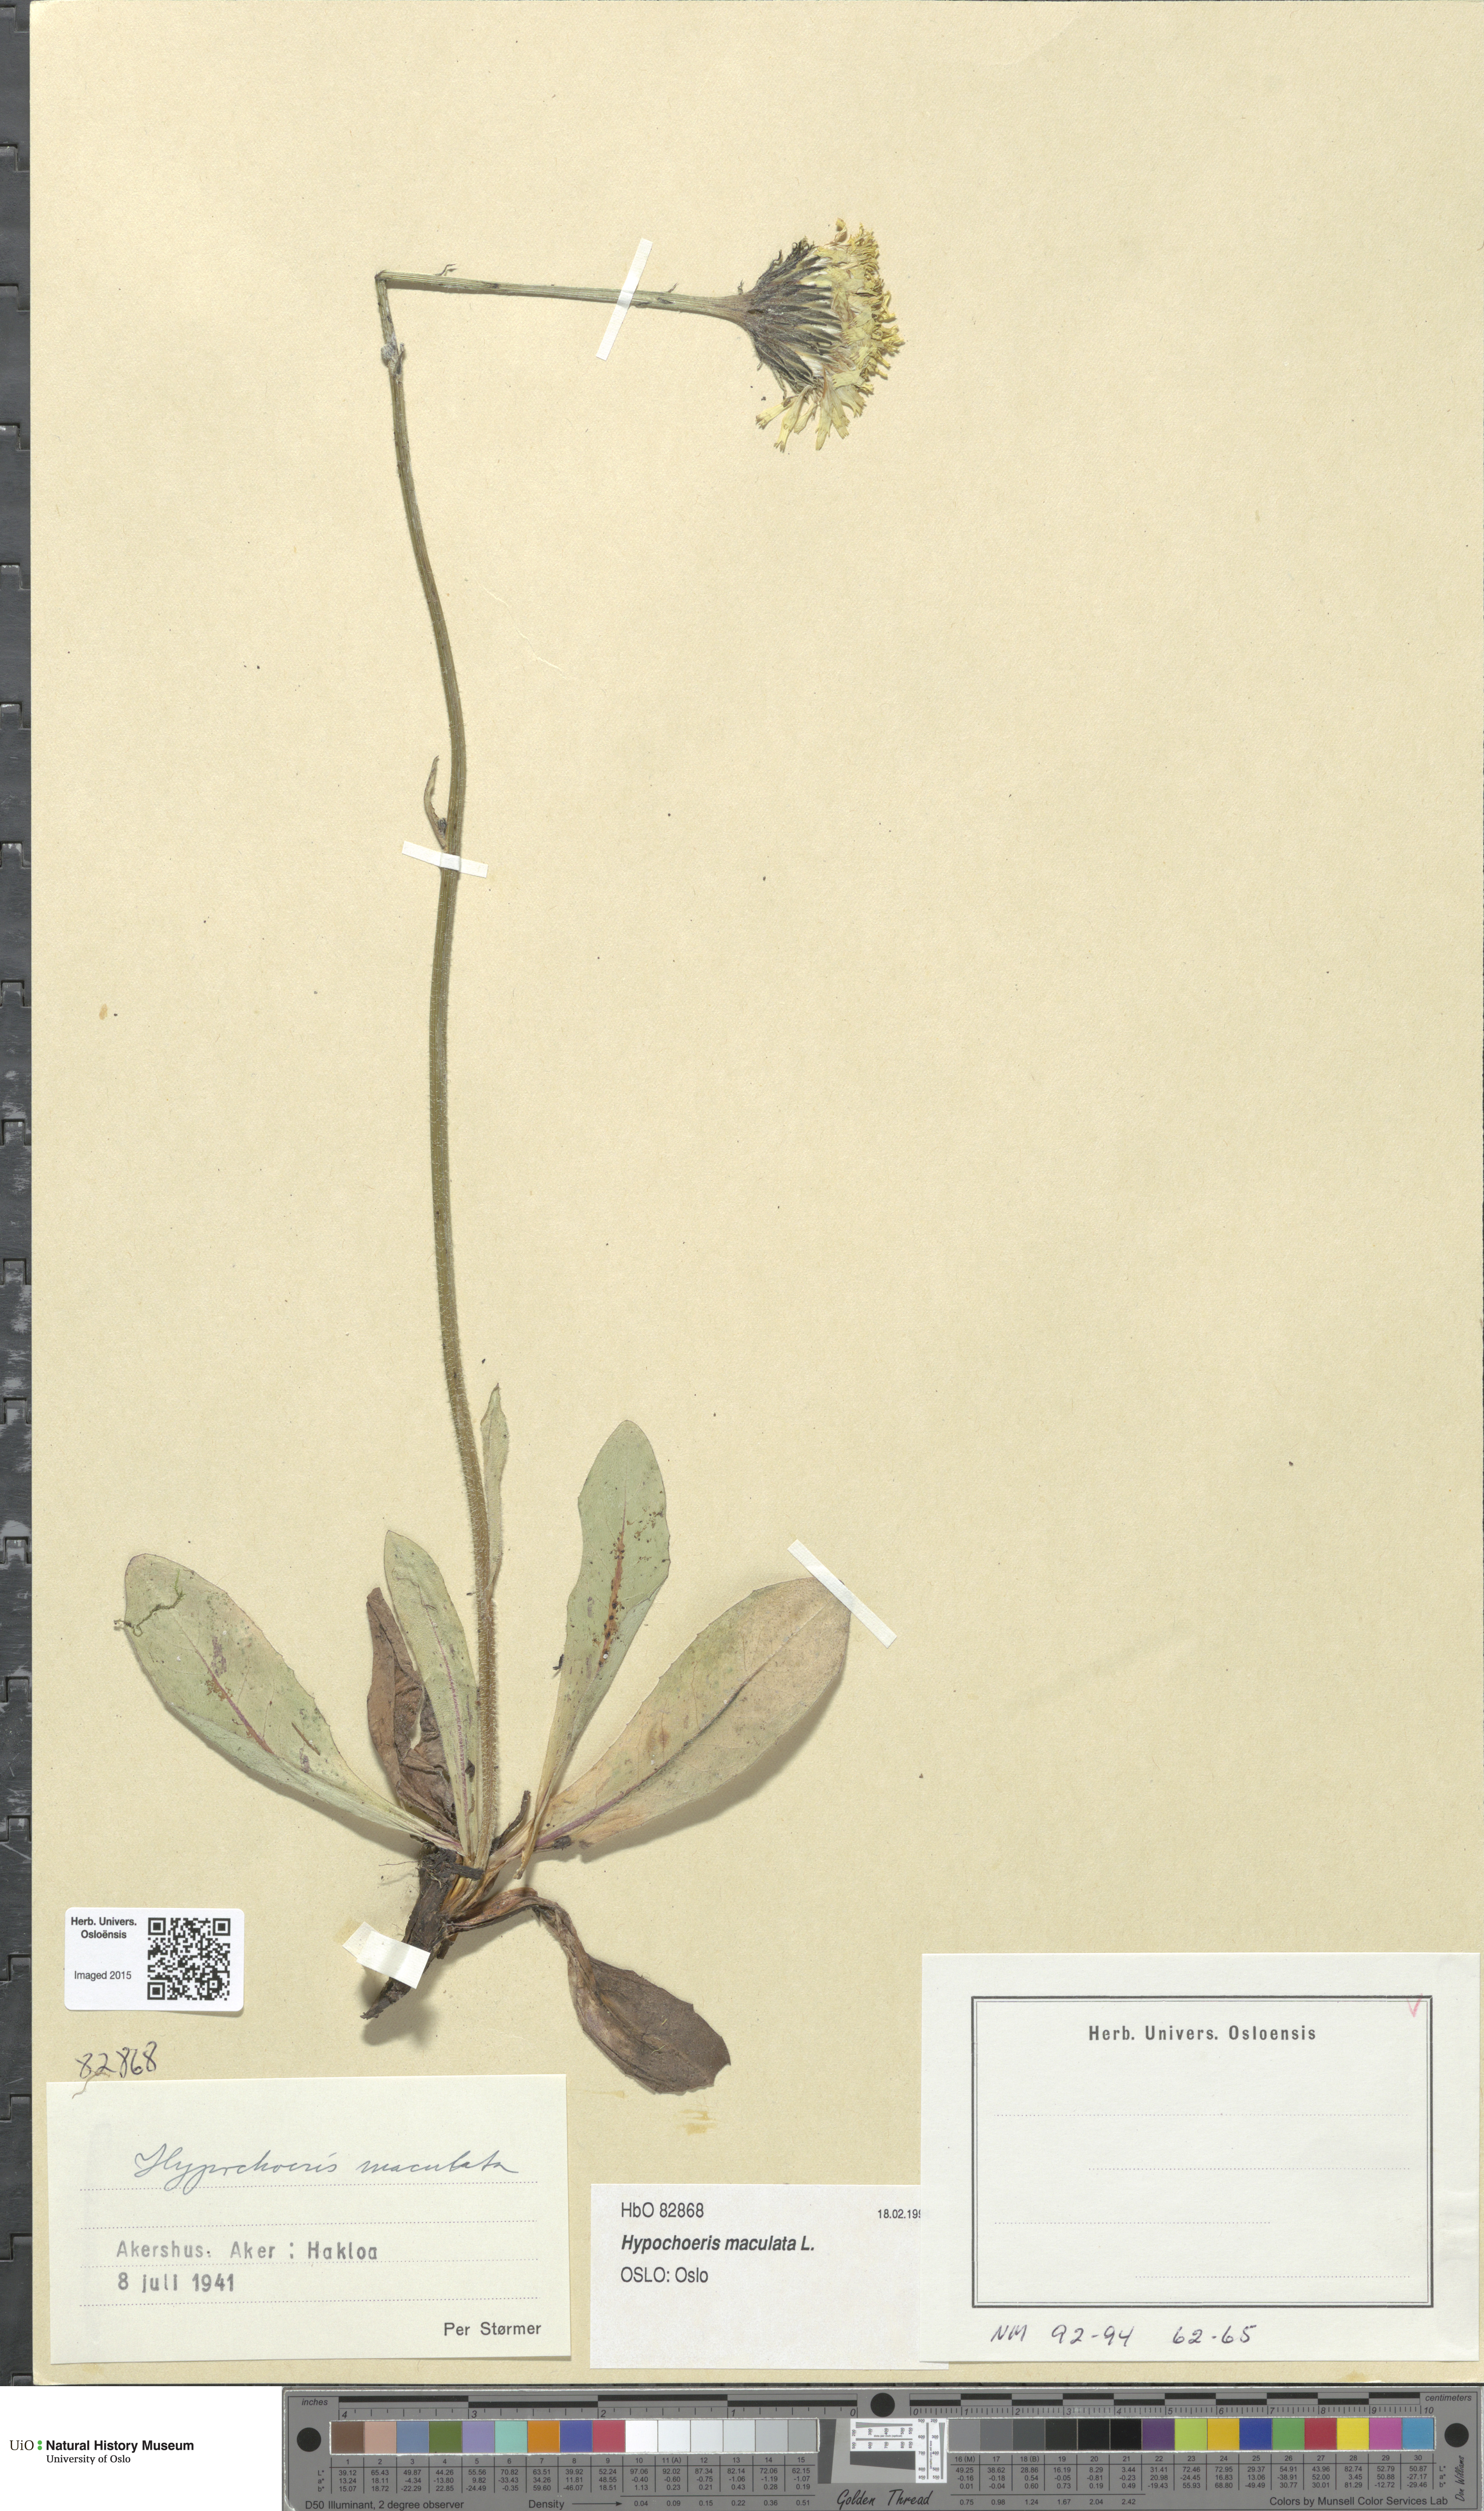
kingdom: Plantae
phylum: Tracheophyta
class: Magnoliopsida
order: Asterales
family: Asteraceae
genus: Trommsdorffia
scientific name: Trommsdorffia maculata
